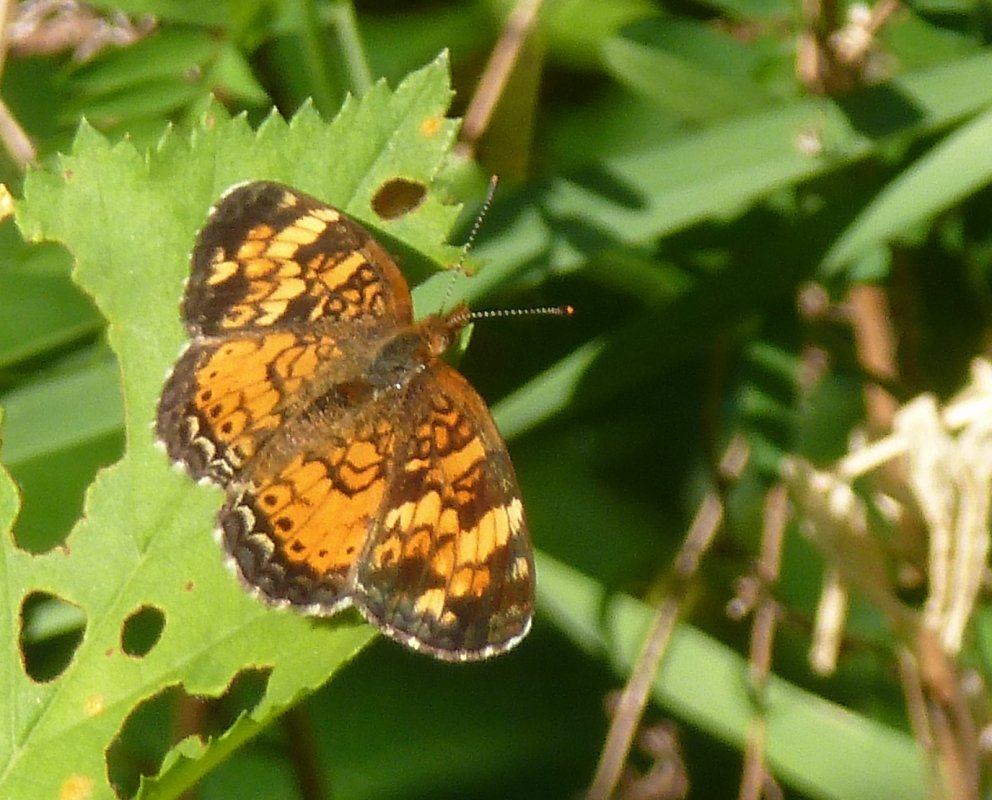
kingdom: Animalia
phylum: Arthropoda
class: Insecta
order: Lepidoptera
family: Nymphalidae
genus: Phyciodes
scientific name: Phyciodes tharos
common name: Northern Crescent
